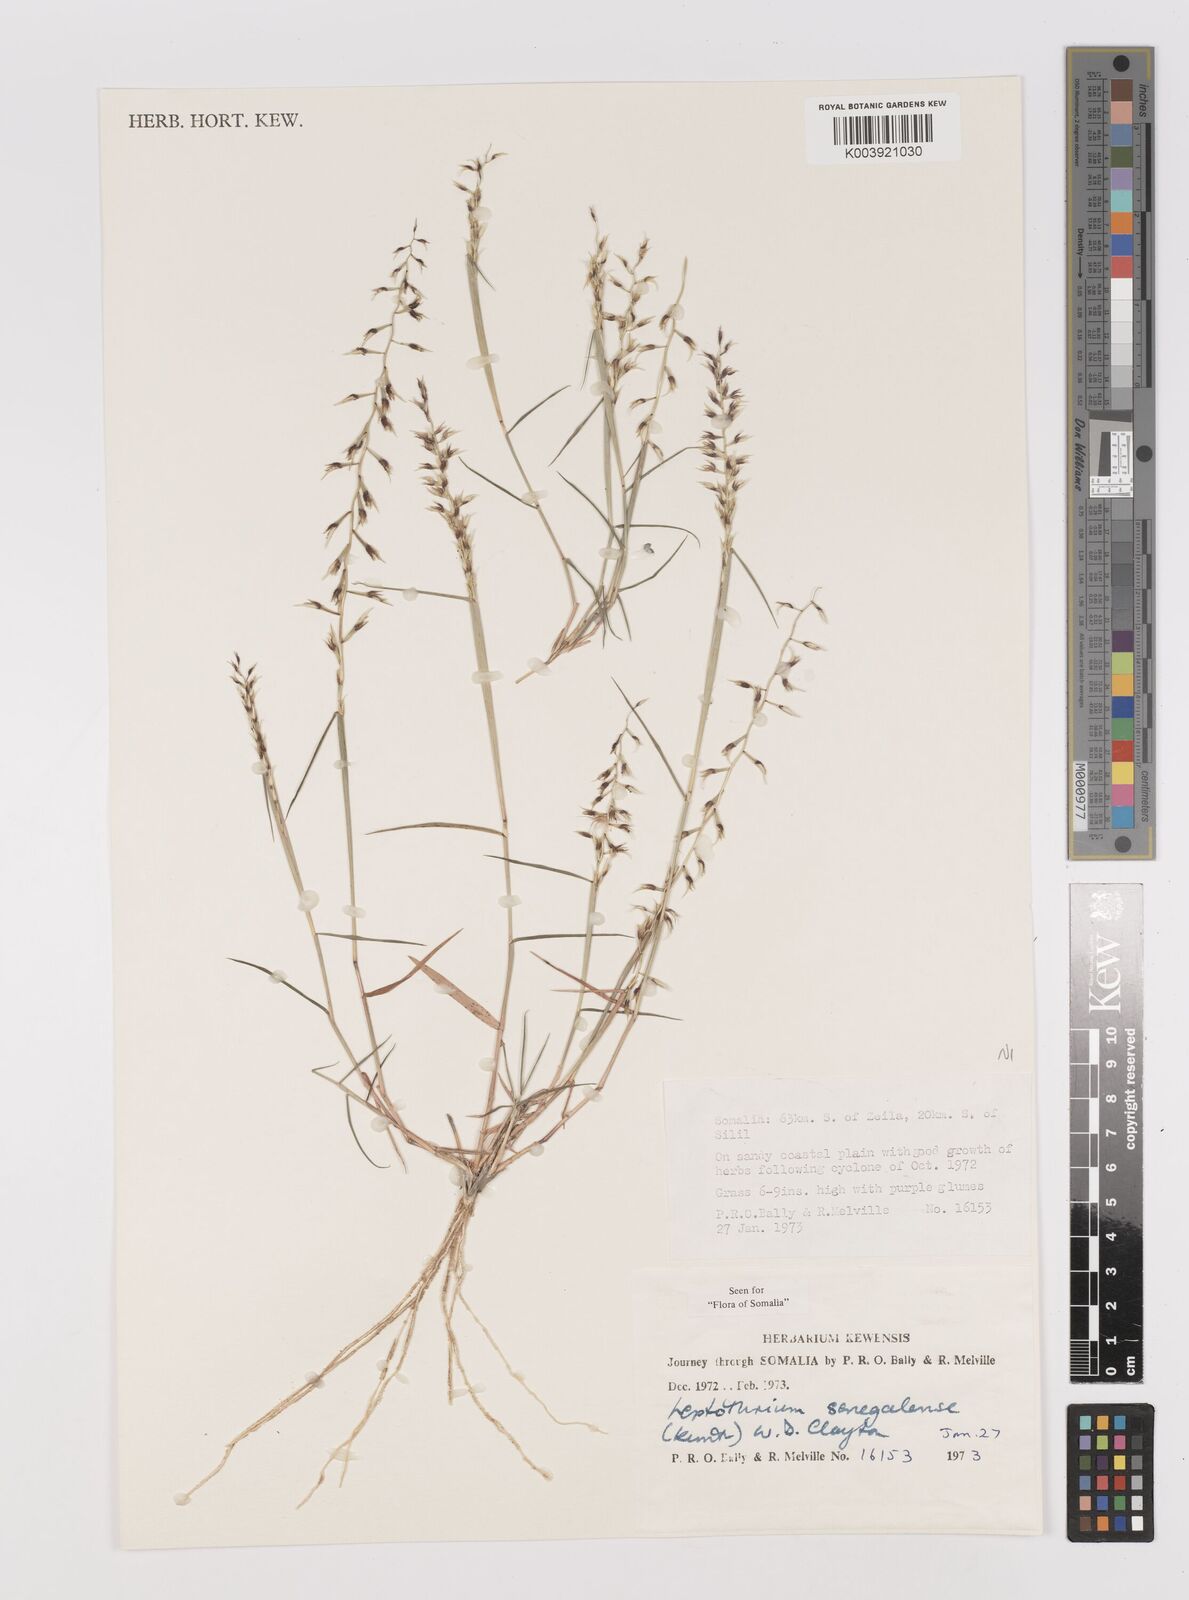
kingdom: Plantae
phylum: Tracheophyta
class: Liliopsida
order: Poales
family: Poaceae
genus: Leptothrium
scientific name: Leptothrium senegalense
